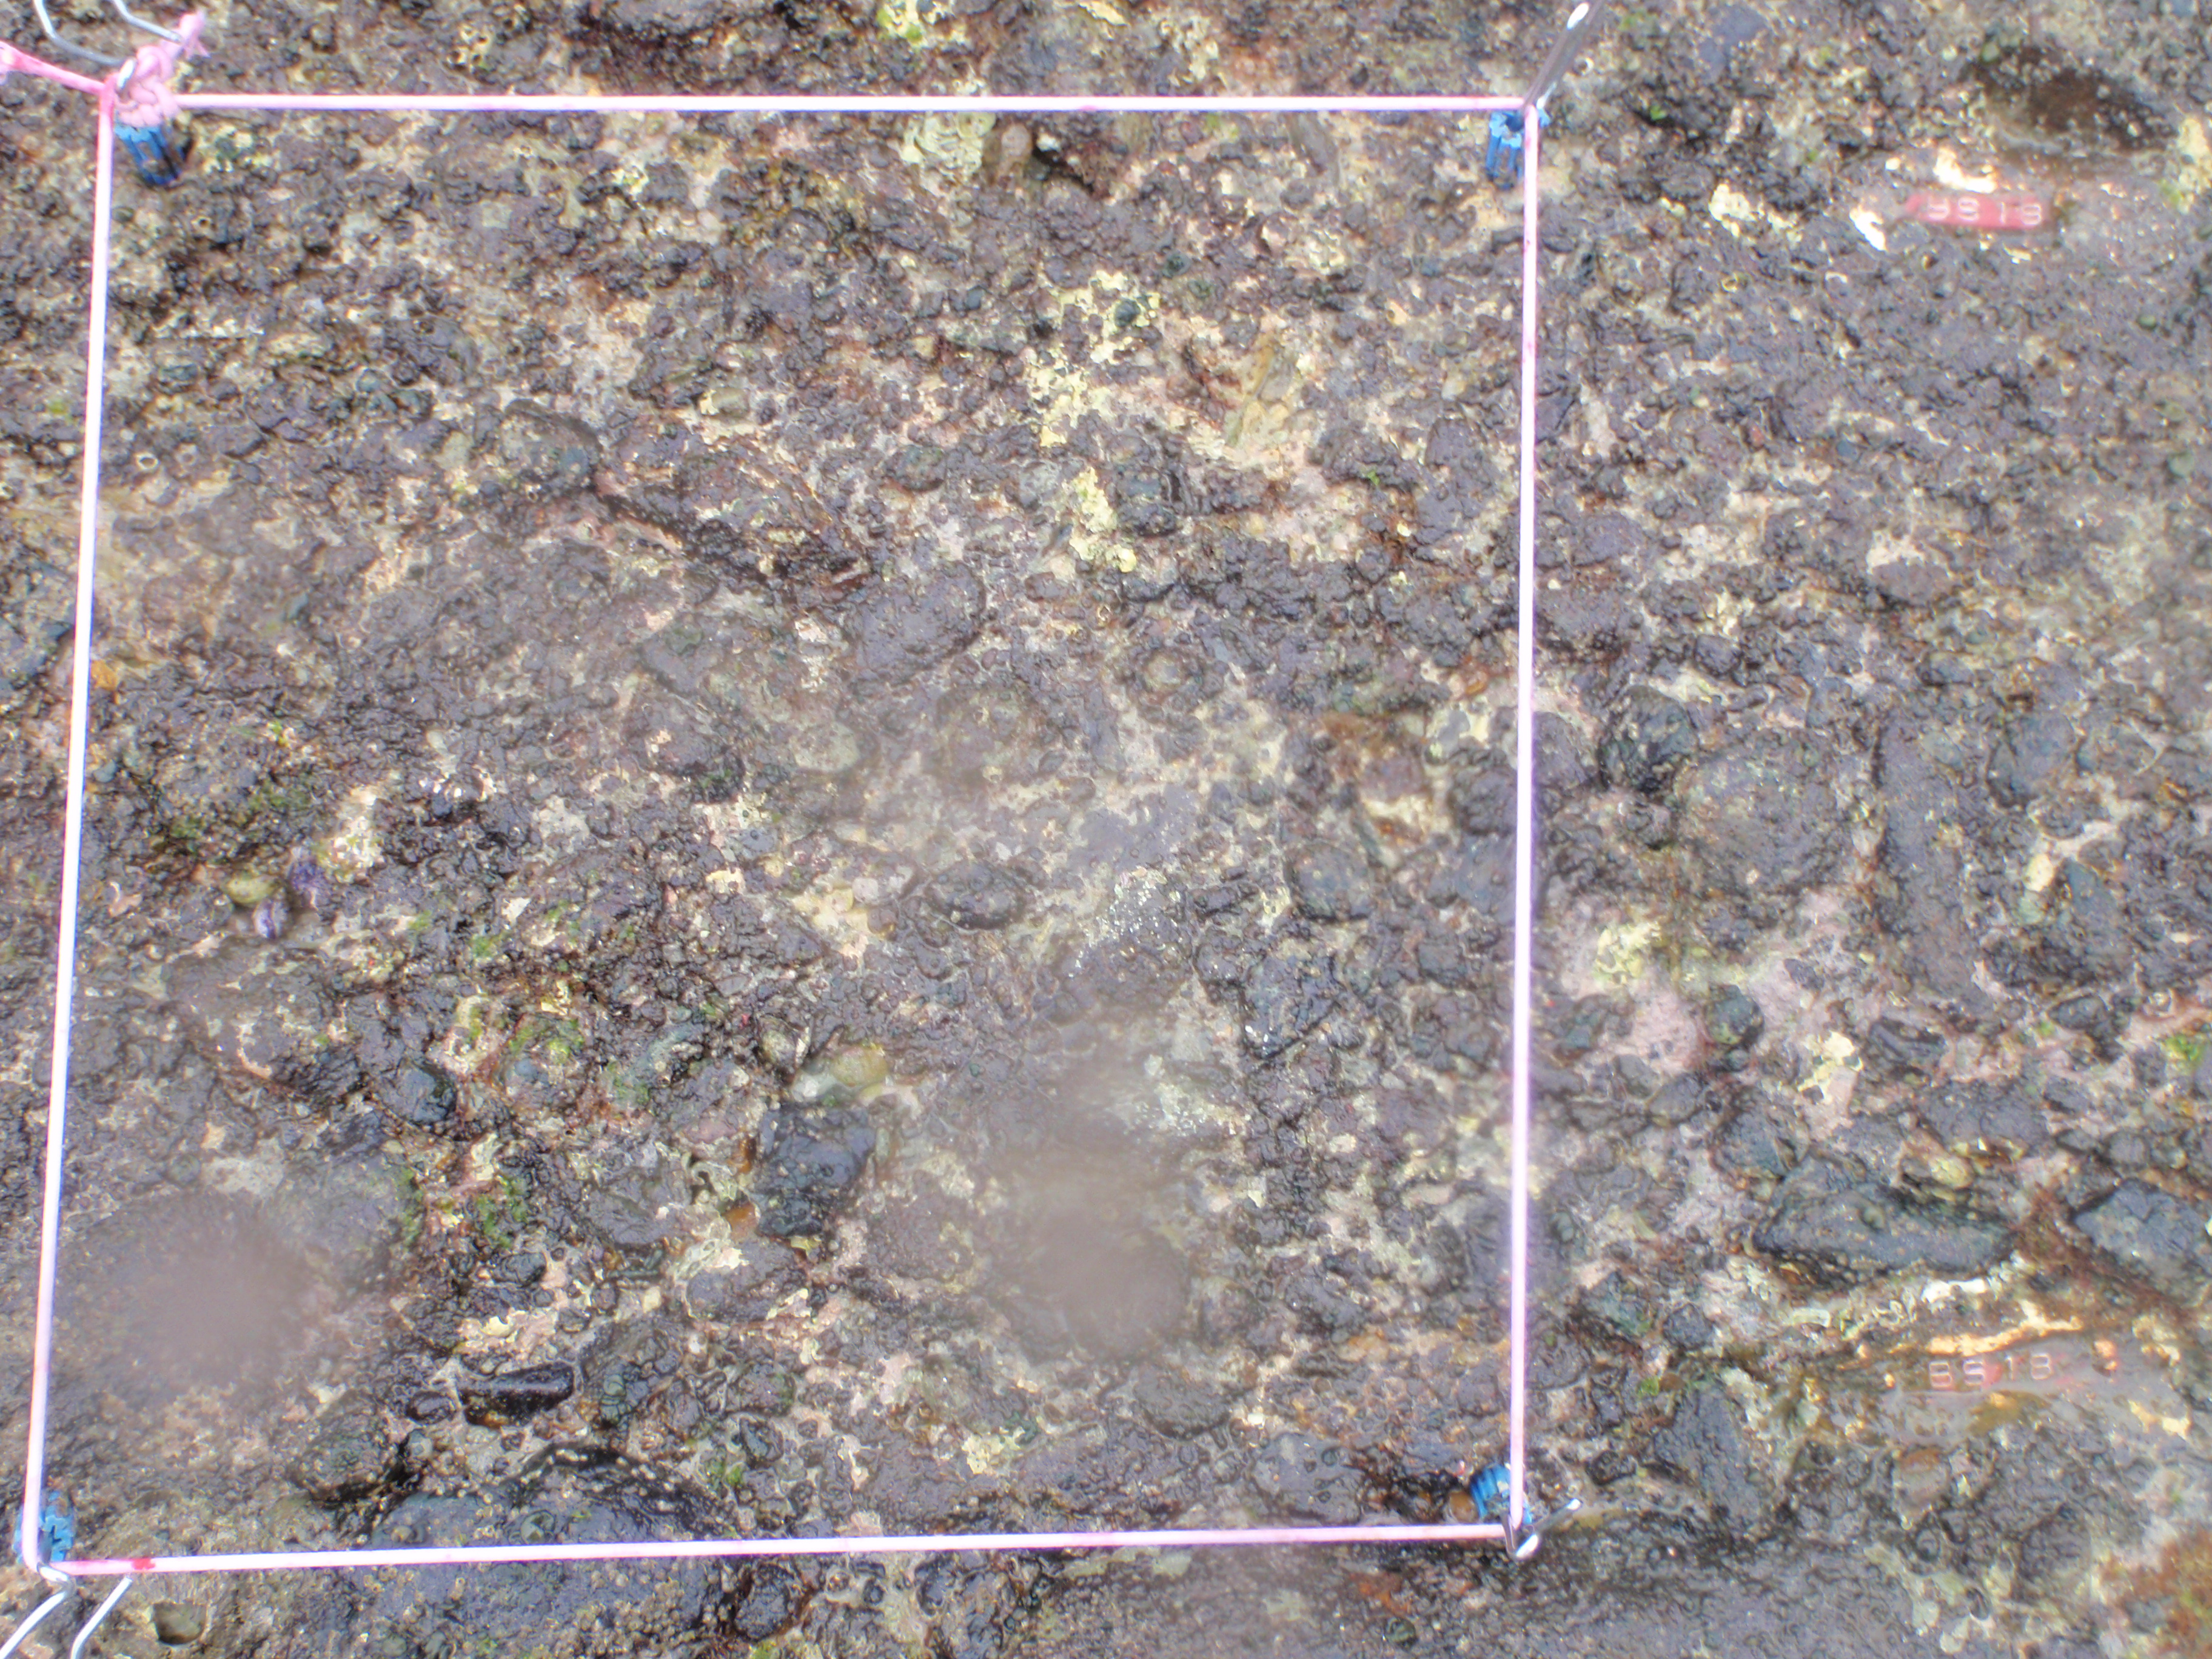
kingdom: Animalia
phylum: Arthropoda
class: Maxillopoda
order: Sessilia
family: Chthamalidae
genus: Chthamalus
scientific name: Chthamalus challengeri
